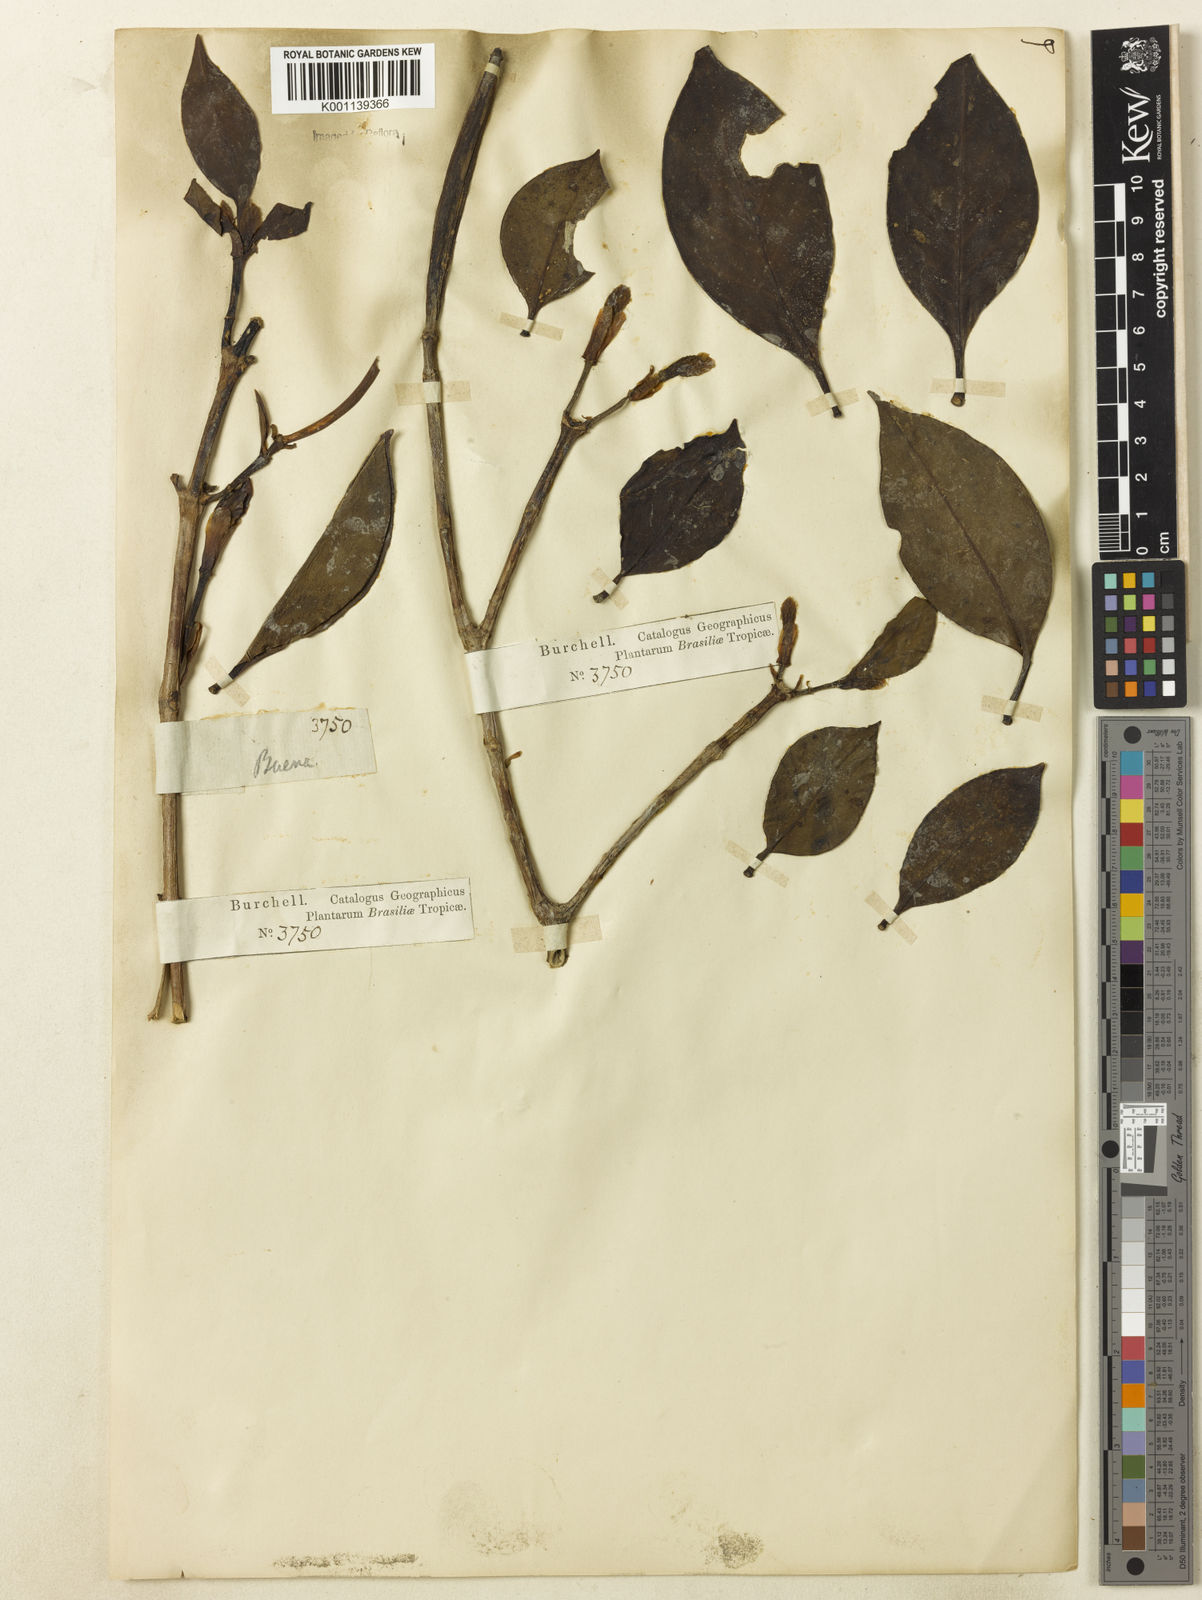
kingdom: Plantae
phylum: Tracheophyta
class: Magnoliopsida
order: Gentianales
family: Rubiaceae
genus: Hillia
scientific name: Hillia parasitica
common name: Morning star
